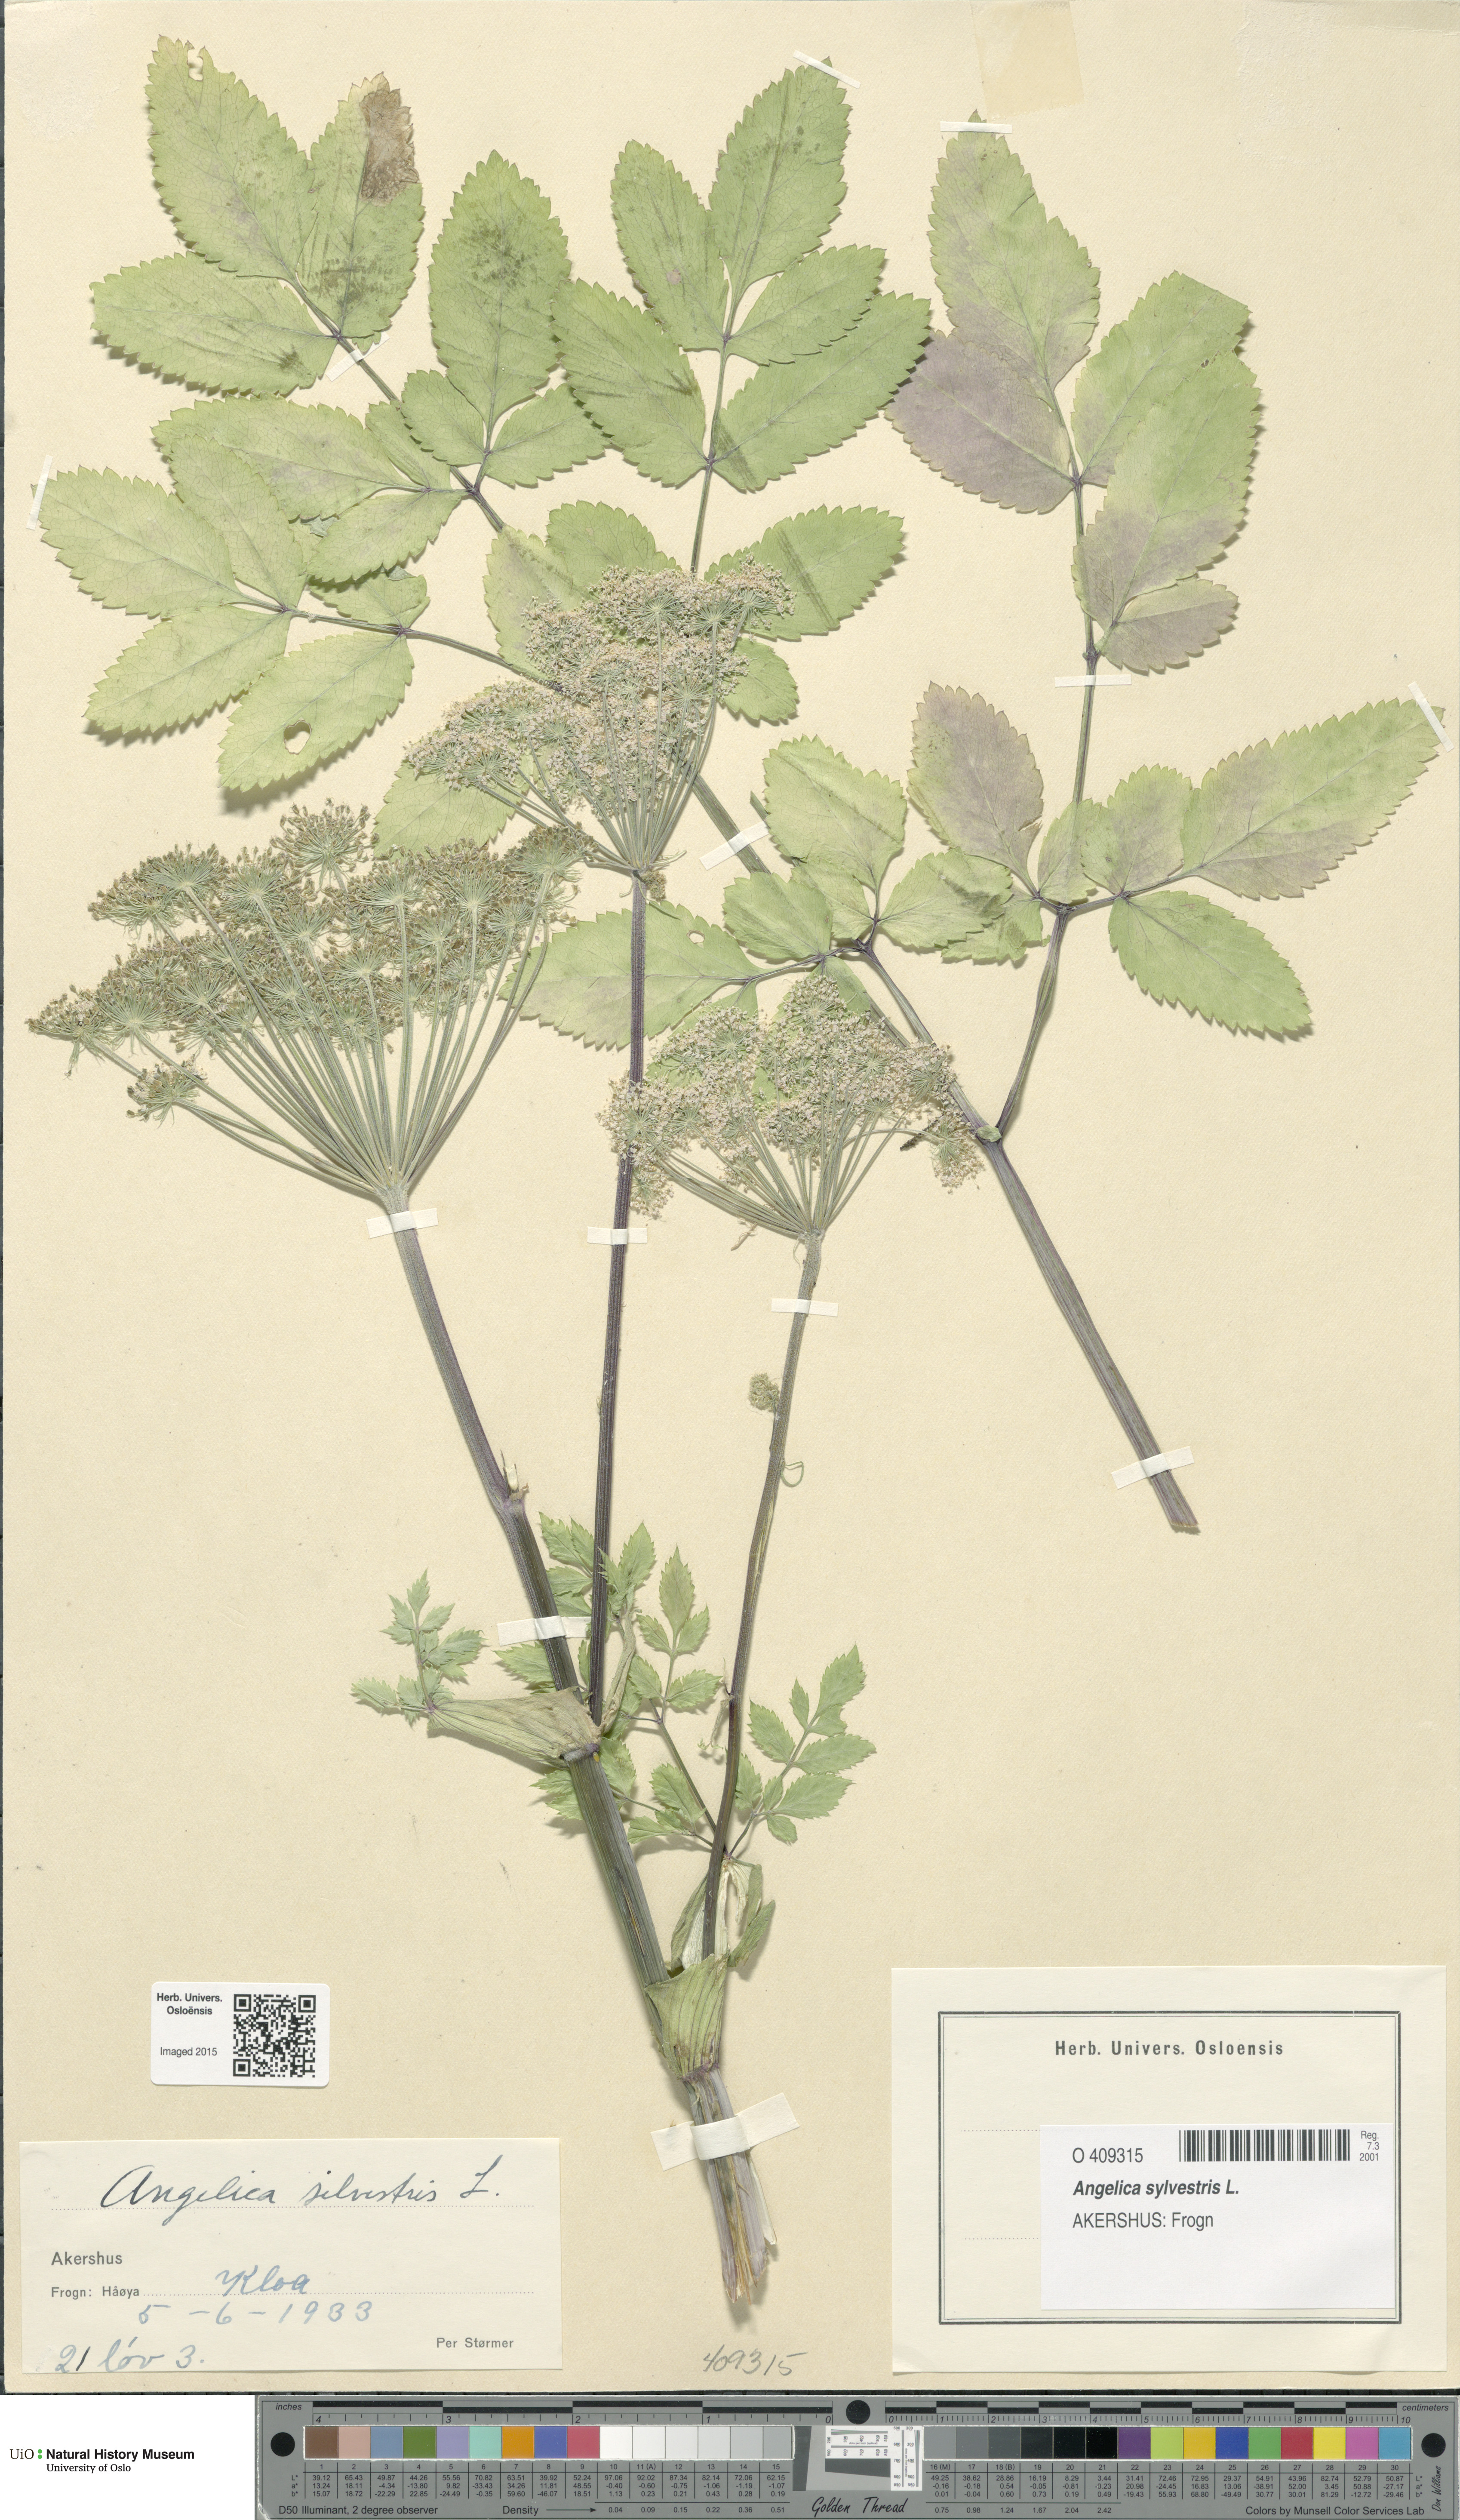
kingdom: Plantae
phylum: Tracheophyta
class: Magnoliopsida
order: Apiales
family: Apiaceae
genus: Angelica
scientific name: Angelica sylvestris
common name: Wild angelica
